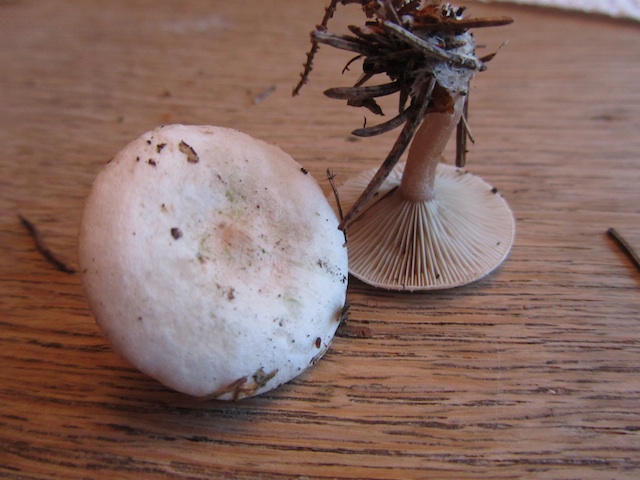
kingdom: Fungi
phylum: Basidiomycota
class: Agaricomycetes
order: Agaricales
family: Tricholomataceae
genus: Ripartites
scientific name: Ripartites tricholoma
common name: almindelig skæghat
